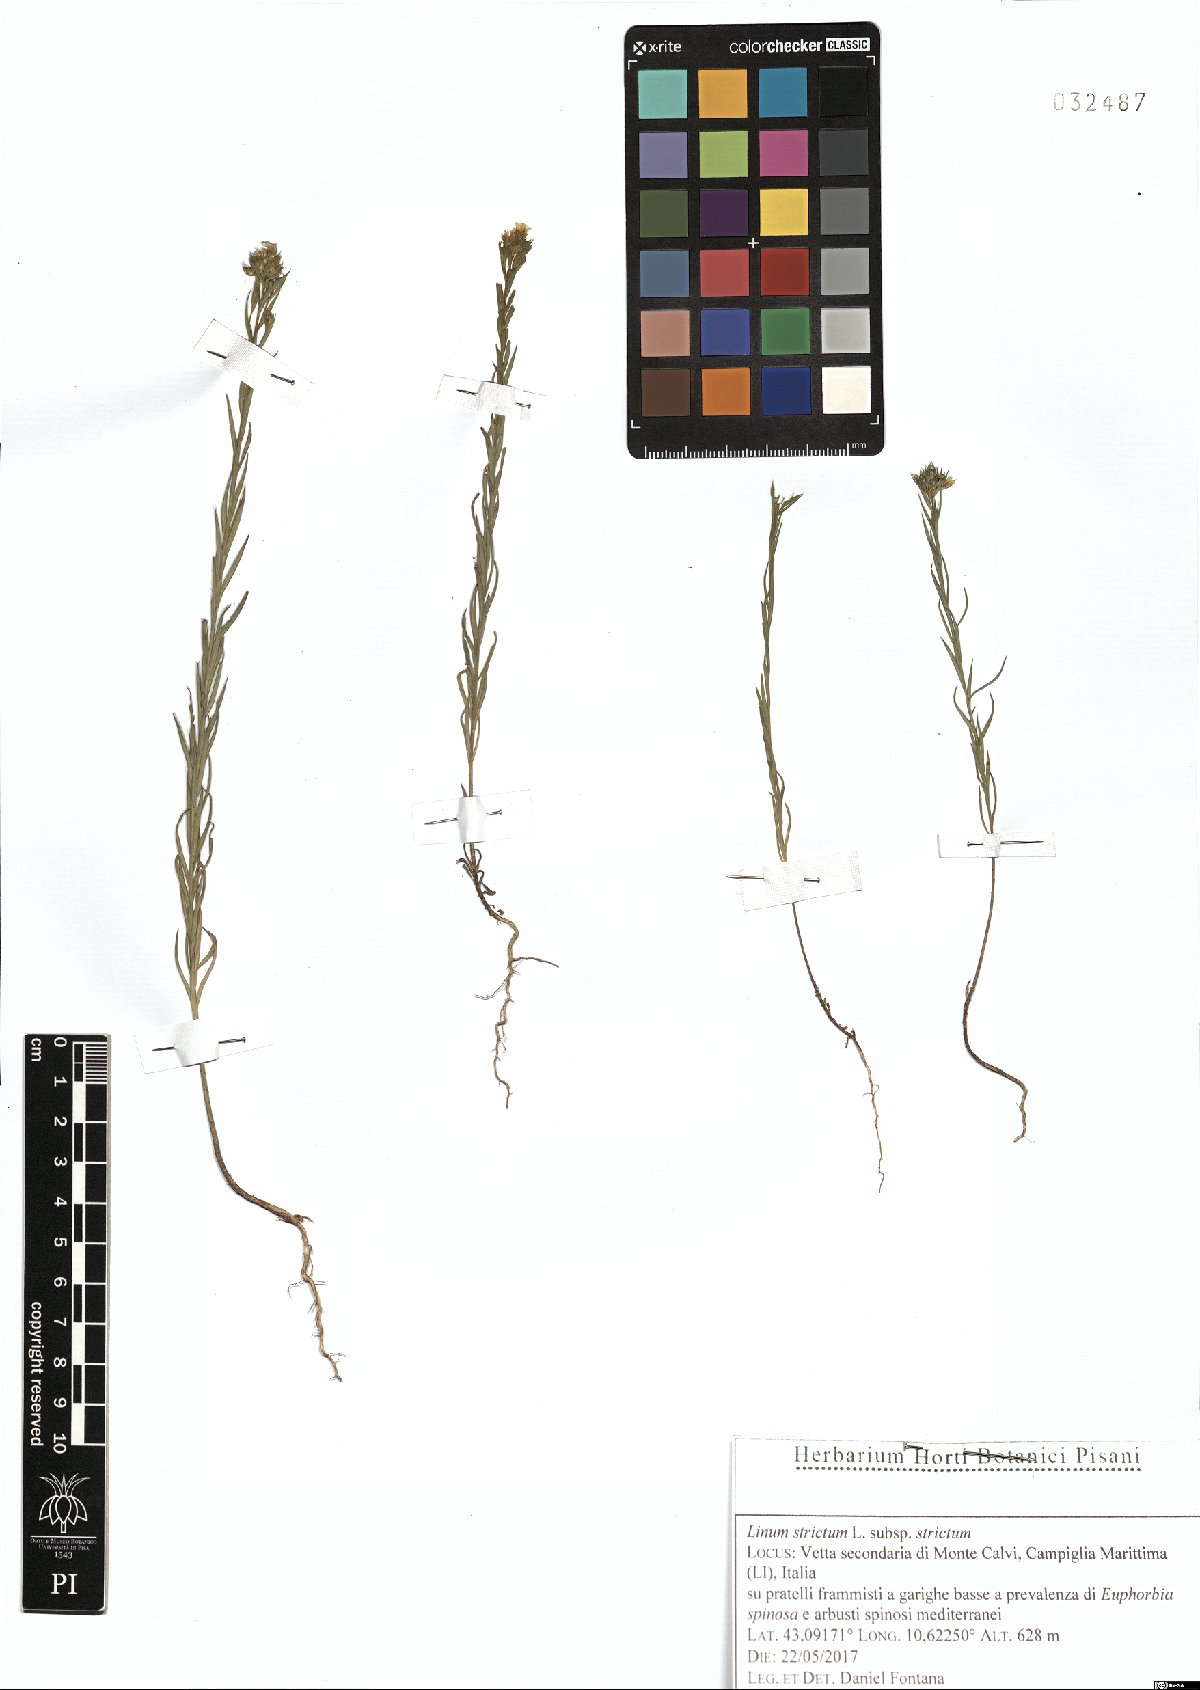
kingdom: Plantae
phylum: Tracheophyta
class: Magnoliopsida
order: Malpighiales
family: Linaceae
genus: Linum
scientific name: Linum strictum
